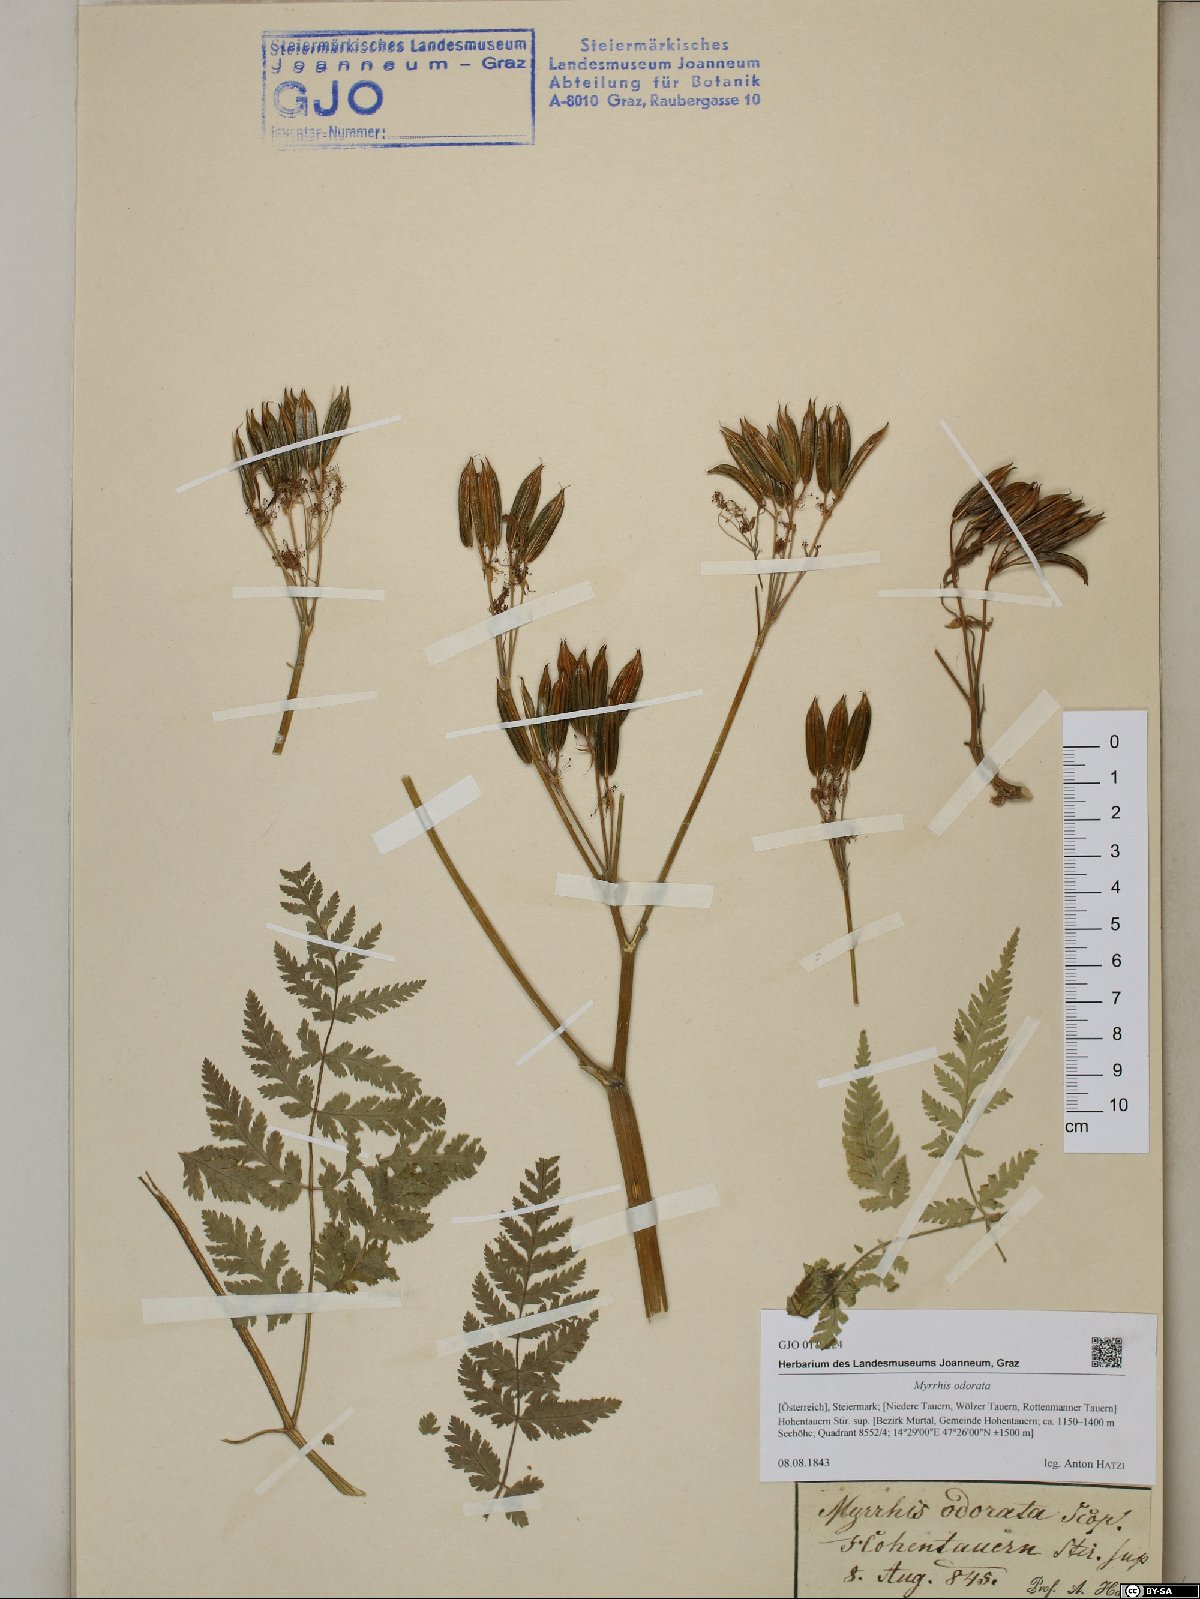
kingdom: Plantae
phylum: Tracheophyta
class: Magnoliopsida
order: Apiales
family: Apiaceae
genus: Myrrhis
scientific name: Myrrhis odorata
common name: Sweet cicely
